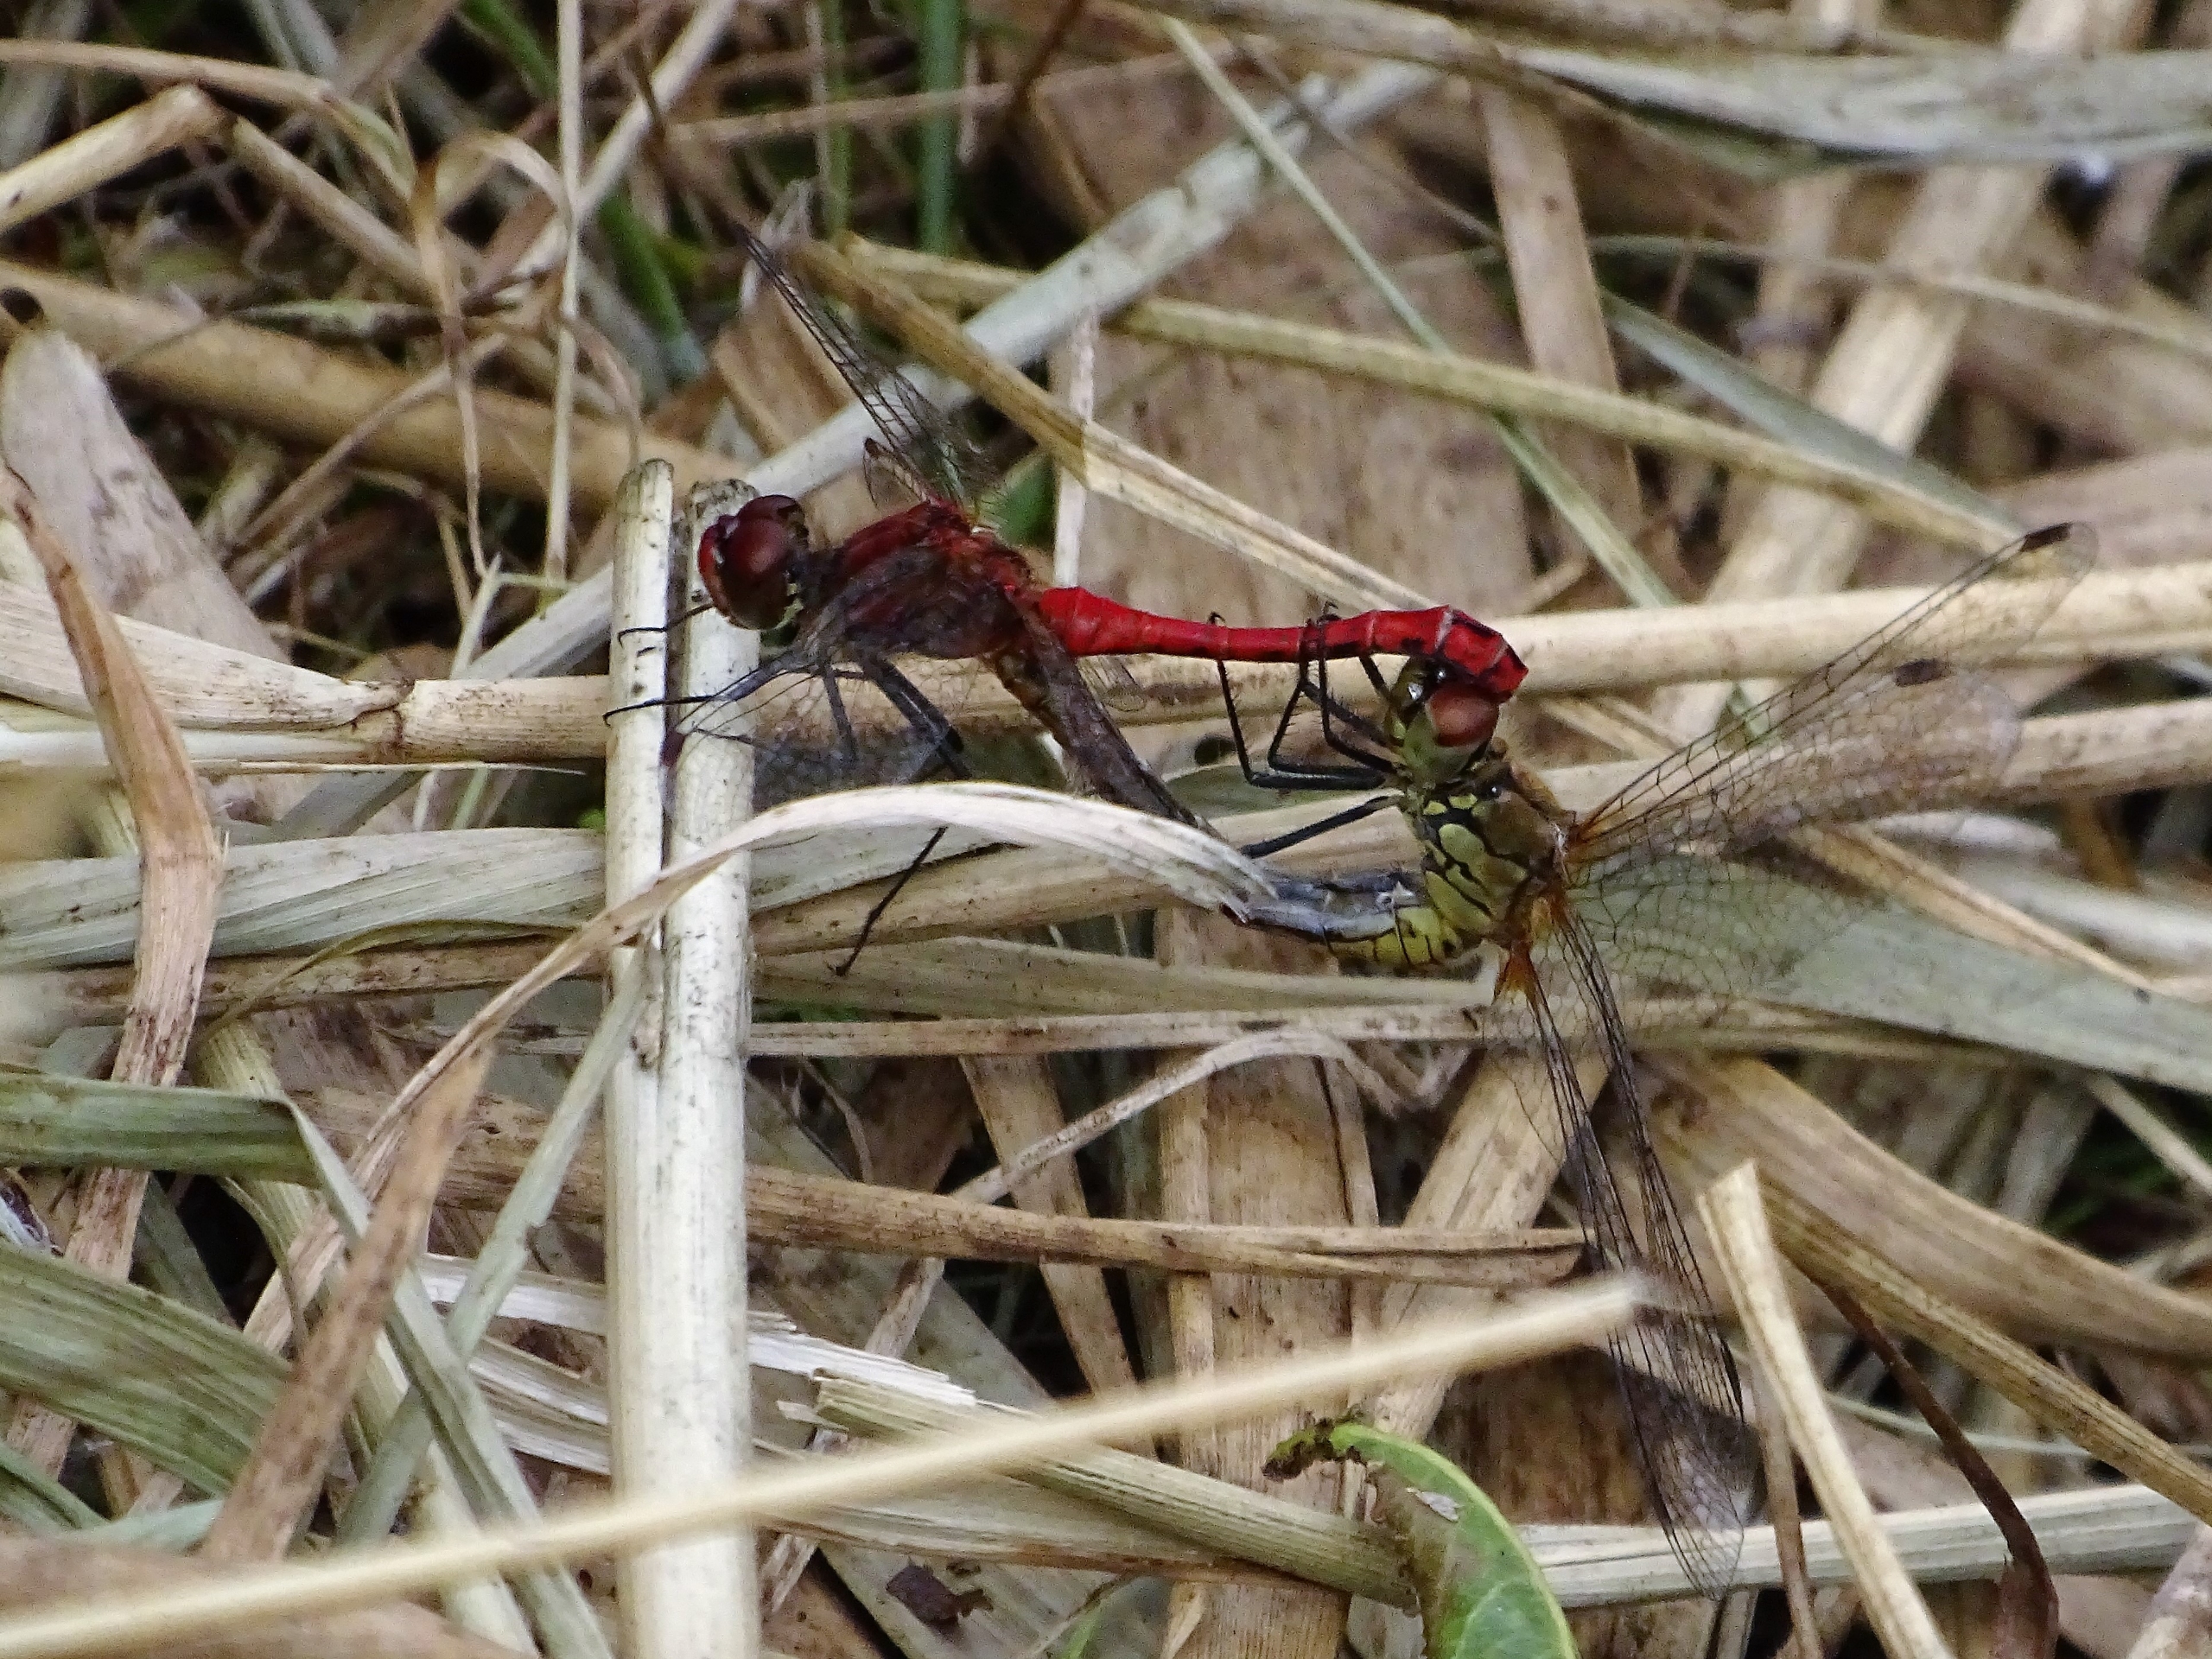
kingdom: Animalia
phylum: Arthropoda
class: Insecta
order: Odonata
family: Libellulidae
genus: Sympetrum
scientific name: Sympetrum sanguineum
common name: Blodrød hedelibel
